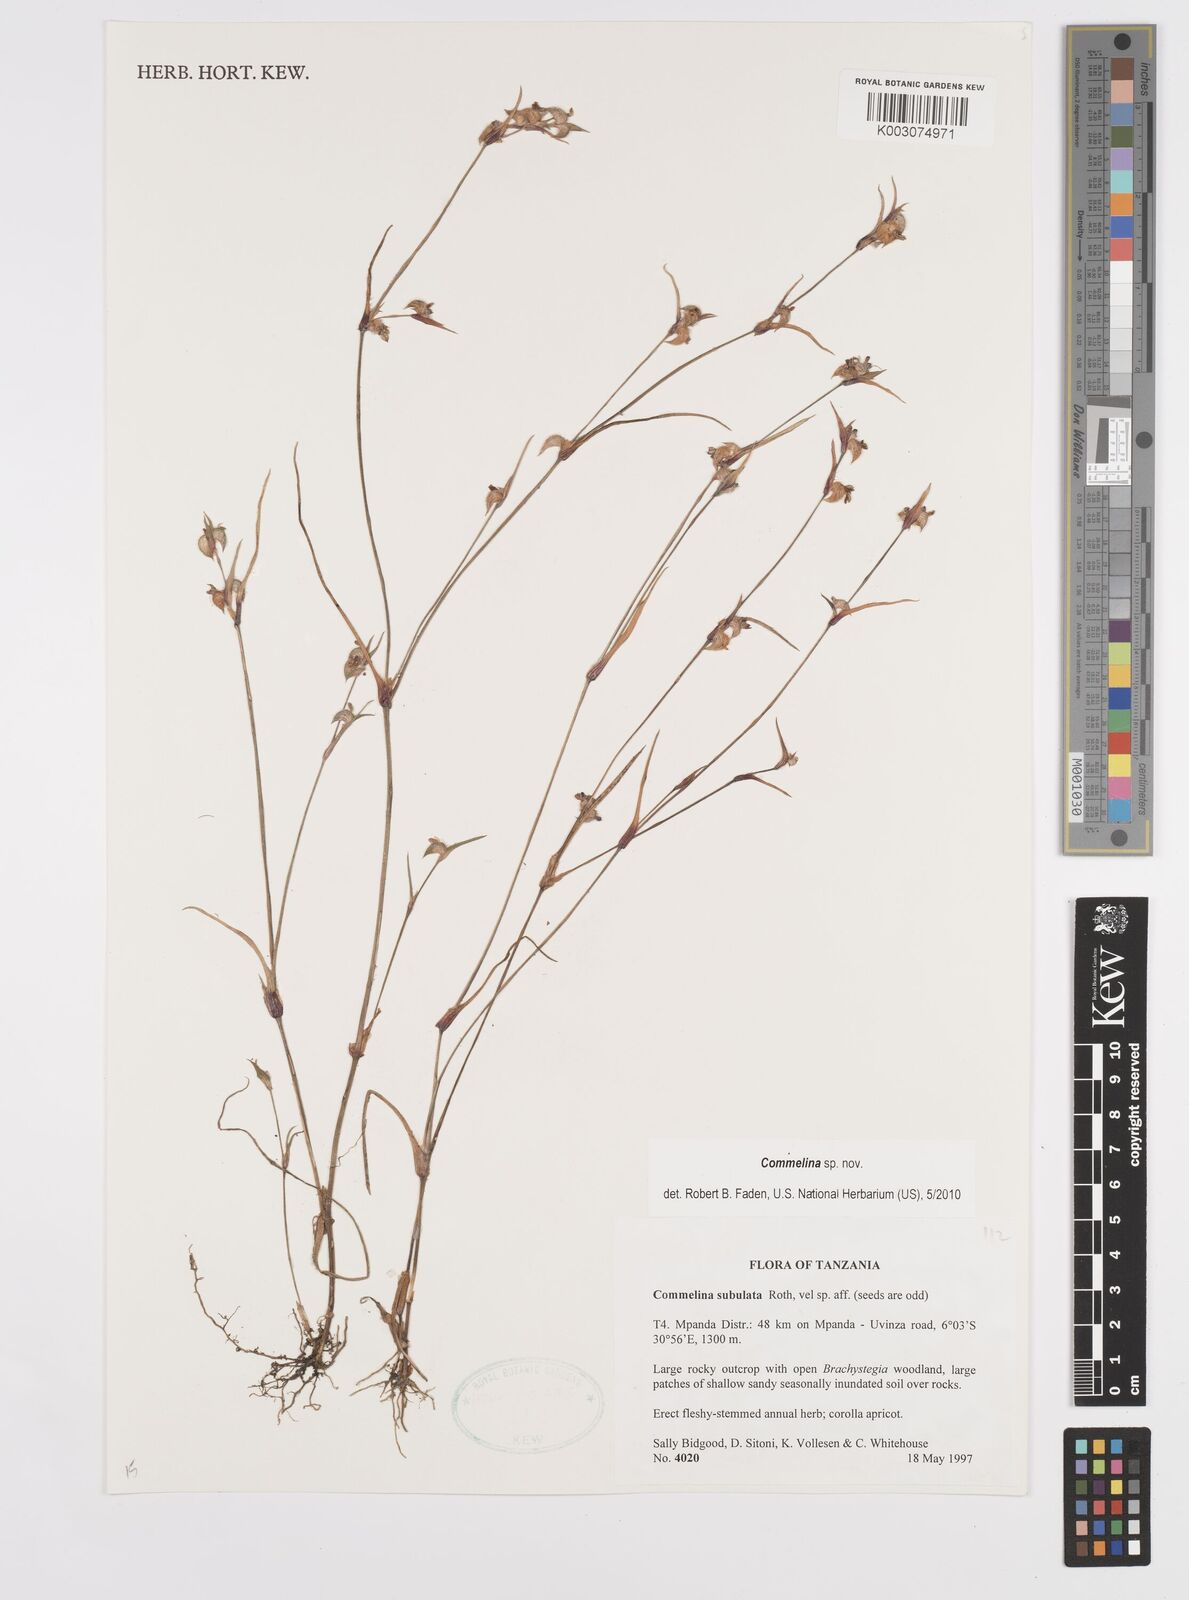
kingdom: Plantae
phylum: Tracheophyta
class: Liliopsida
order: Commelinales
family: Commelinaceae
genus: Commelina
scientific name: Commelina
